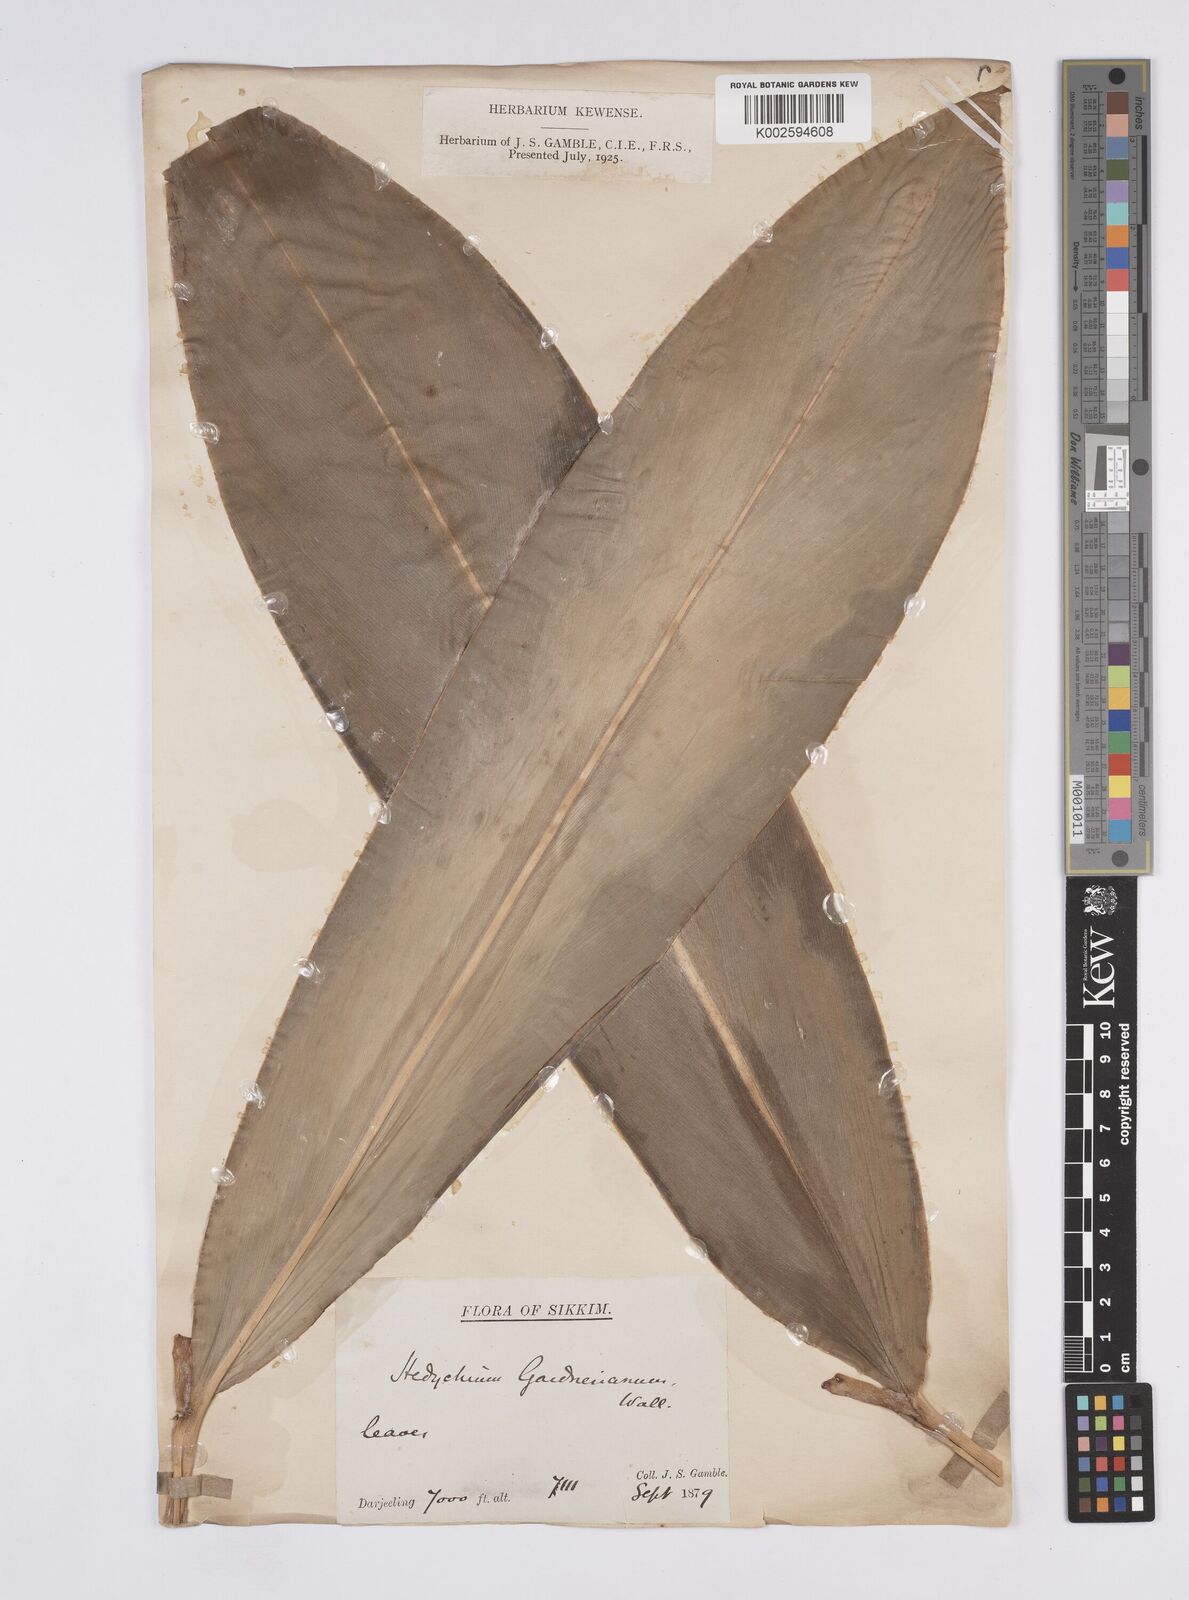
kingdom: Plantae
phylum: Tracheophyta
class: Liliopsida
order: Zingiberales
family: Zingiberaceae
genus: Hedychium
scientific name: Hedychium gardnerianum
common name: Himalayan ginger
